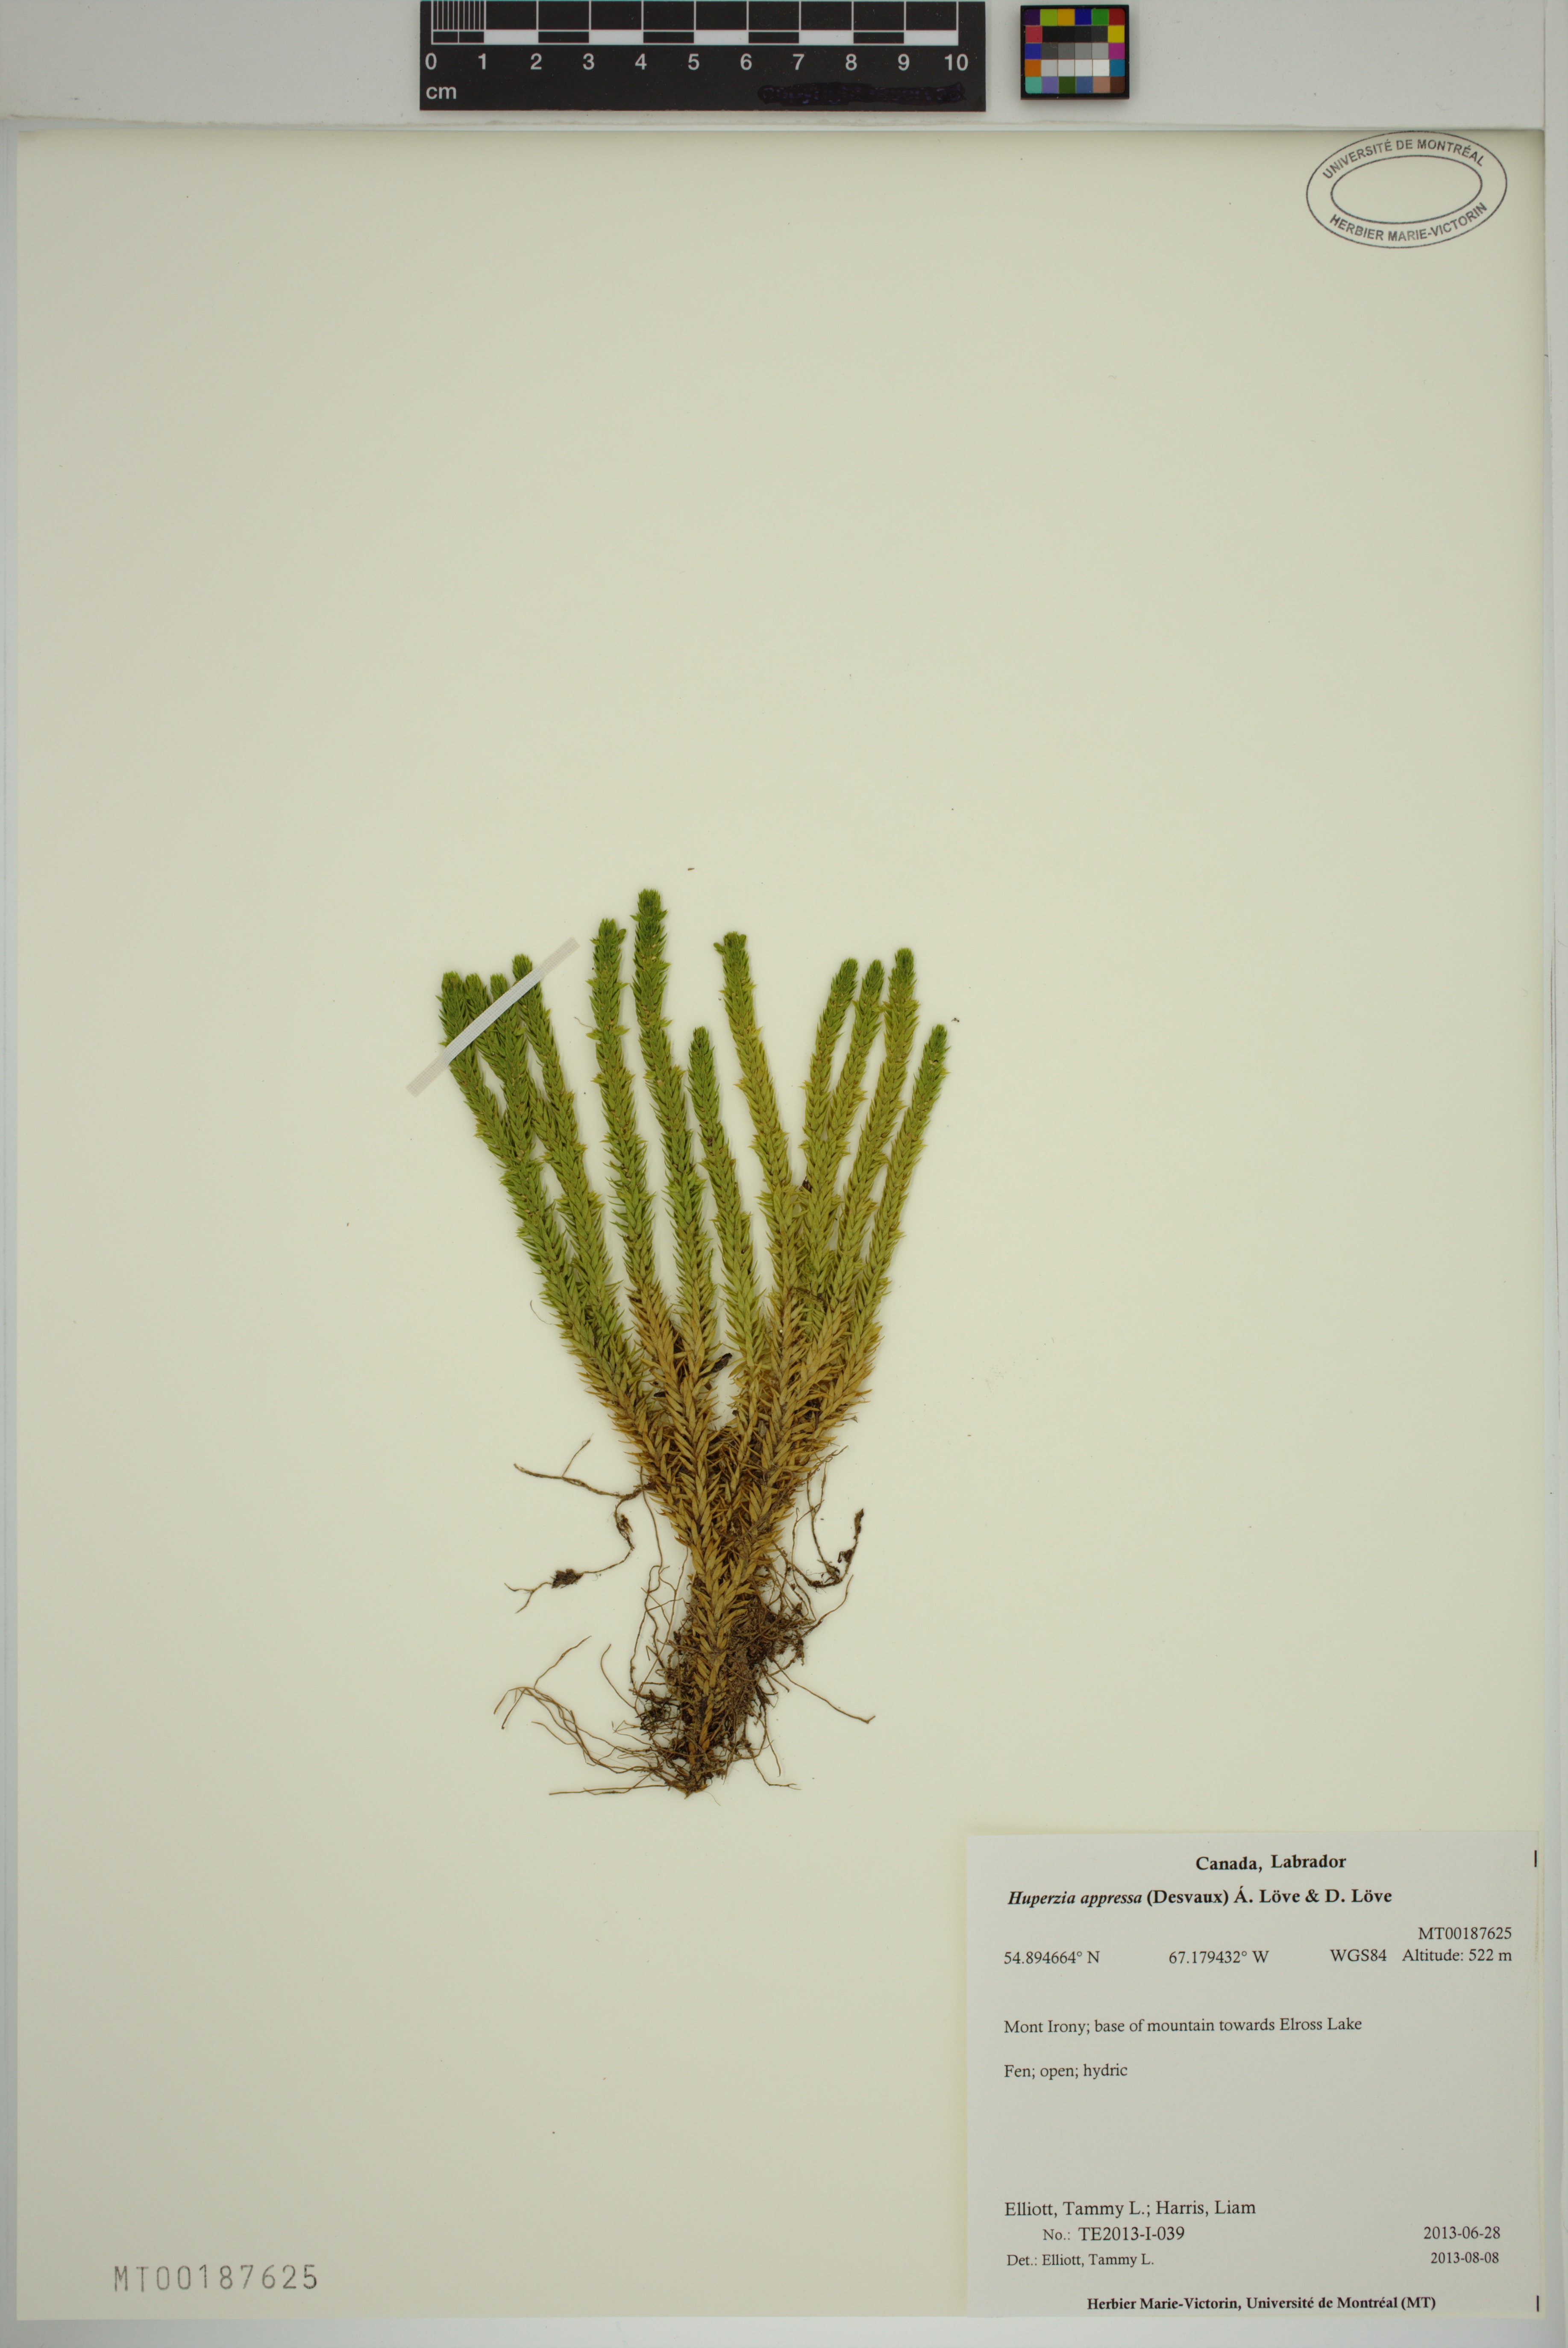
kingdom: Plantae
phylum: Tracheophyta
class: Lycopodiopsida
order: Lycopodiales
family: Lycopodiaceae
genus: Huperzia
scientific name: Huperzia selago
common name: Northern firmoss
